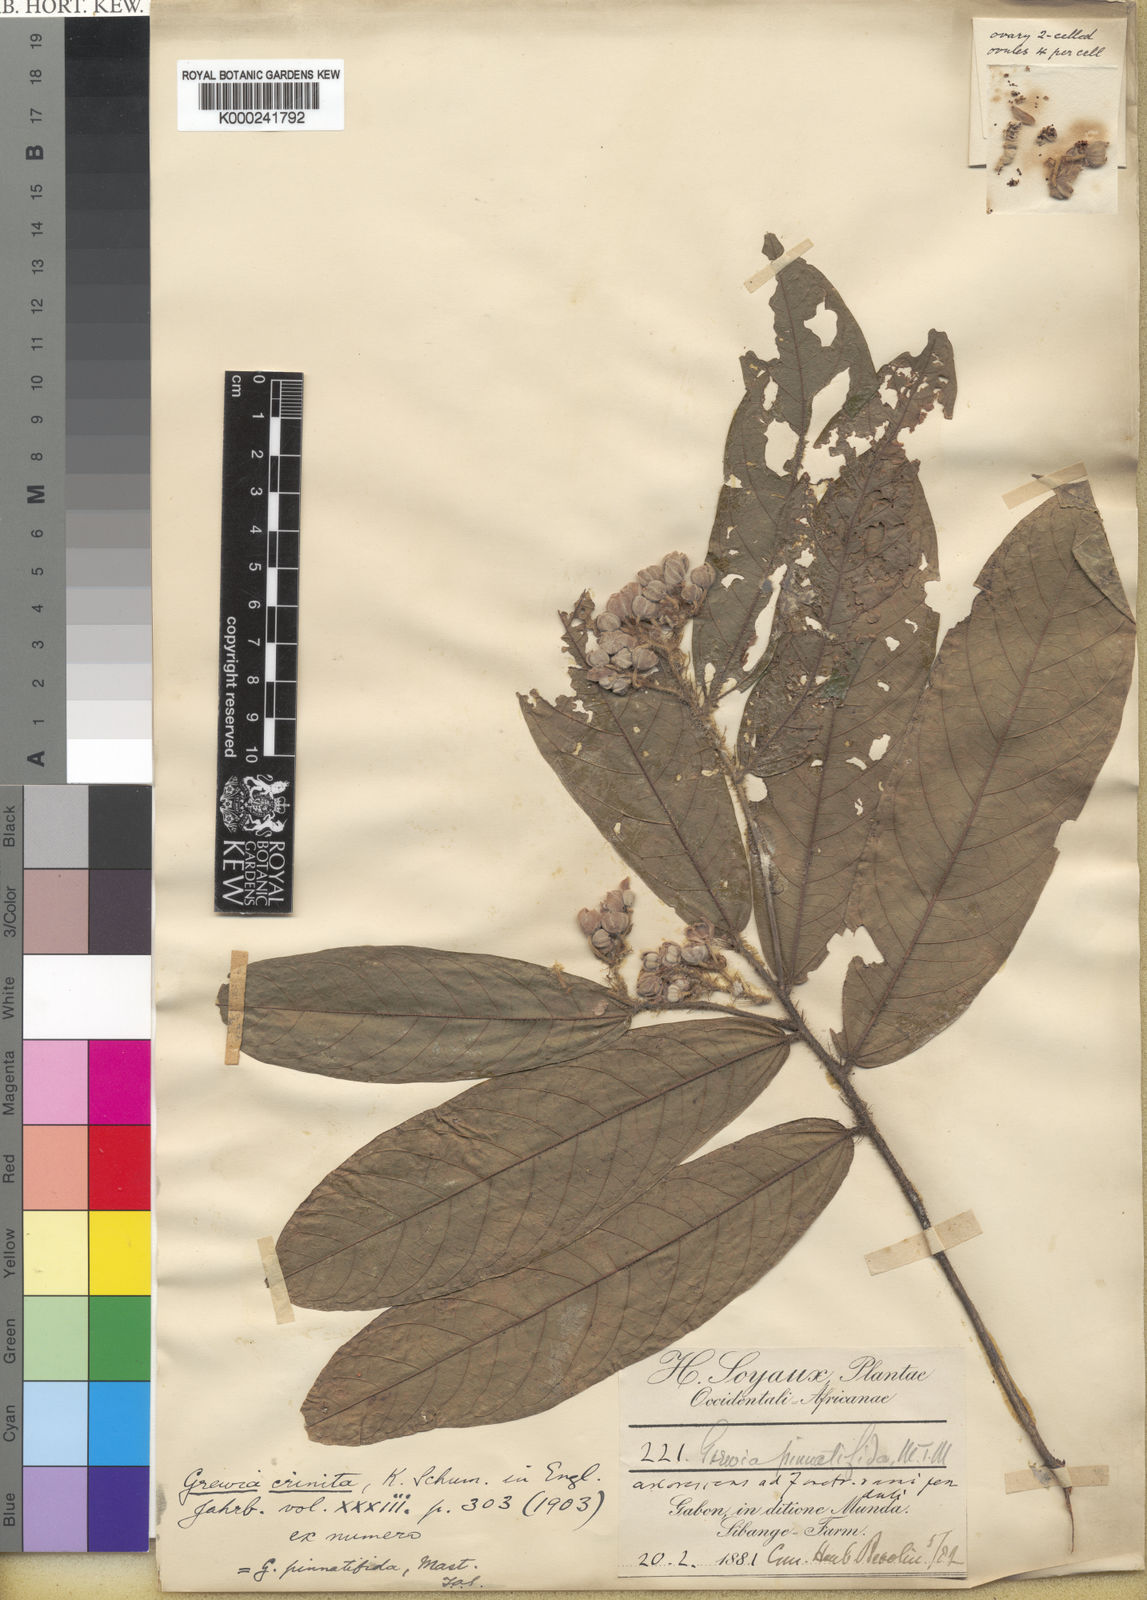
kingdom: Plantae
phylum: Tracheophyta
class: Magnoliopsida
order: Malvales
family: Malvaceae
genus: Microcos
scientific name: Microcos pinnatifida
